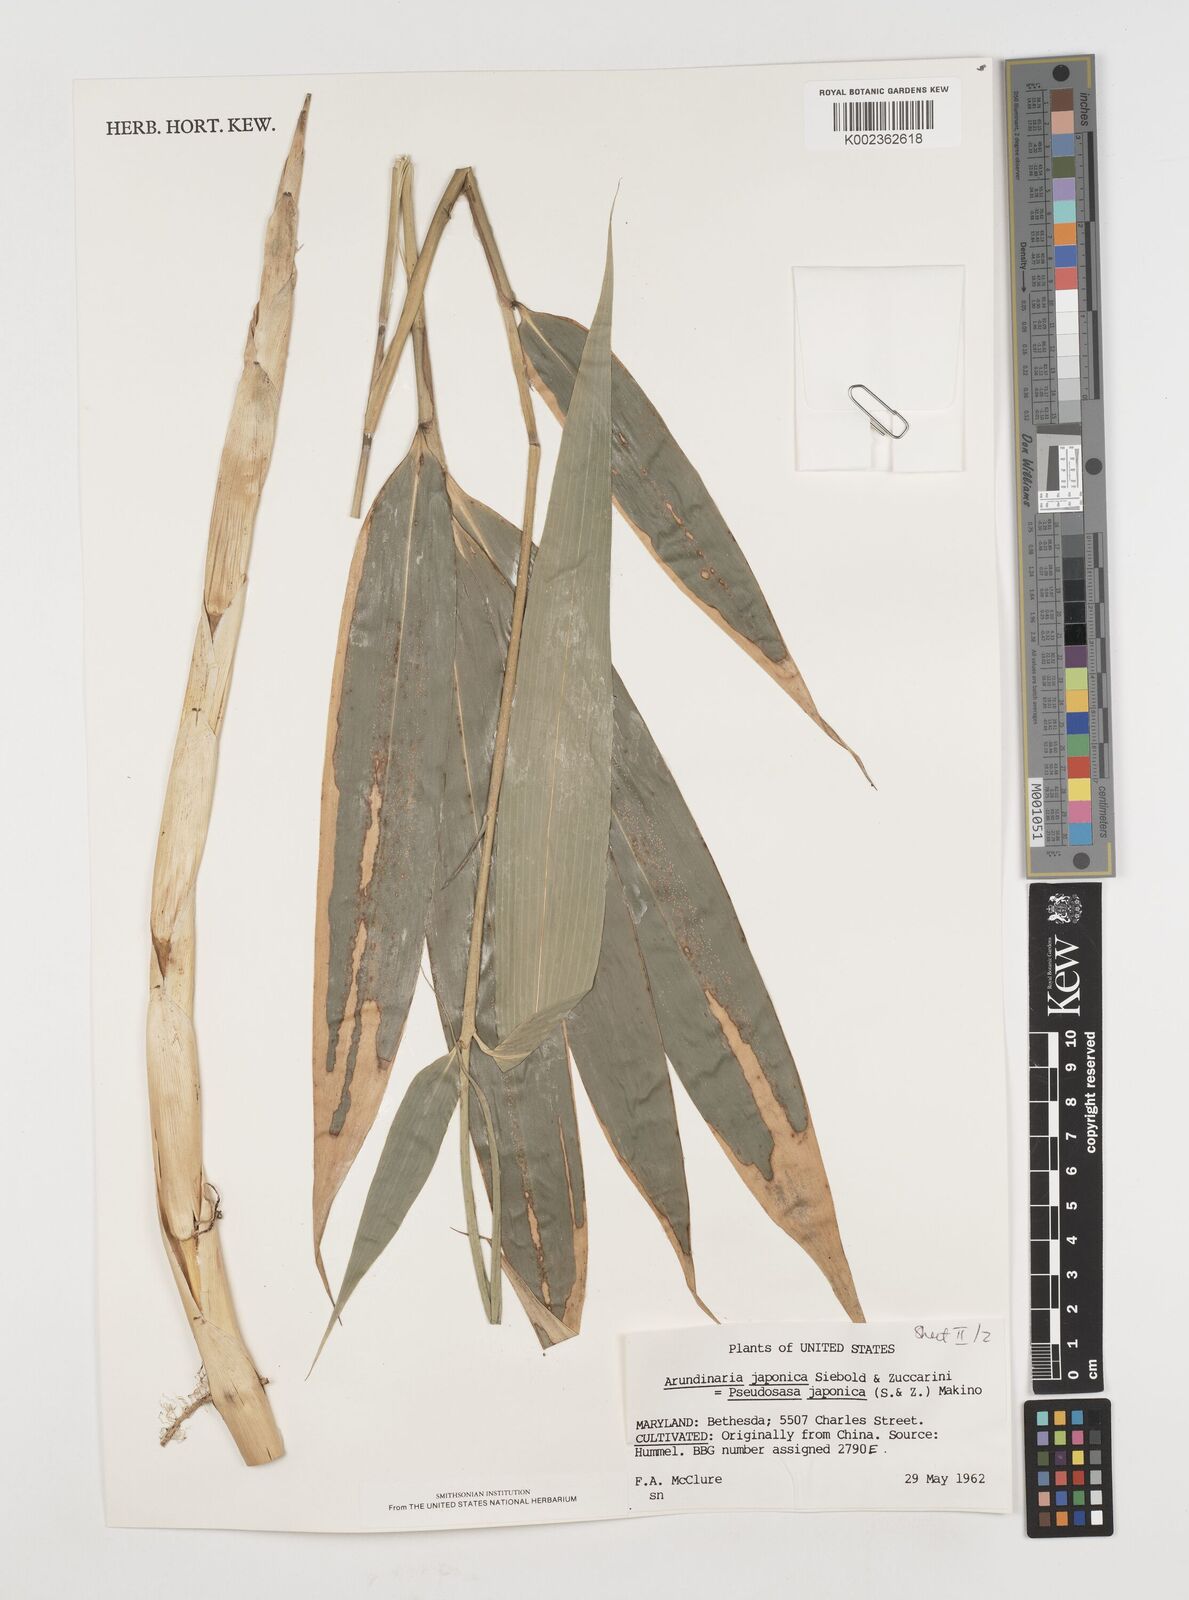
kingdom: Plantae
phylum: Tracheophyta
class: Liliopsida
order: Poales
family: Poaceae
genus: Pseudosasa
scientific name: Pseudosasa japonica
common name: Arrow bamboo
